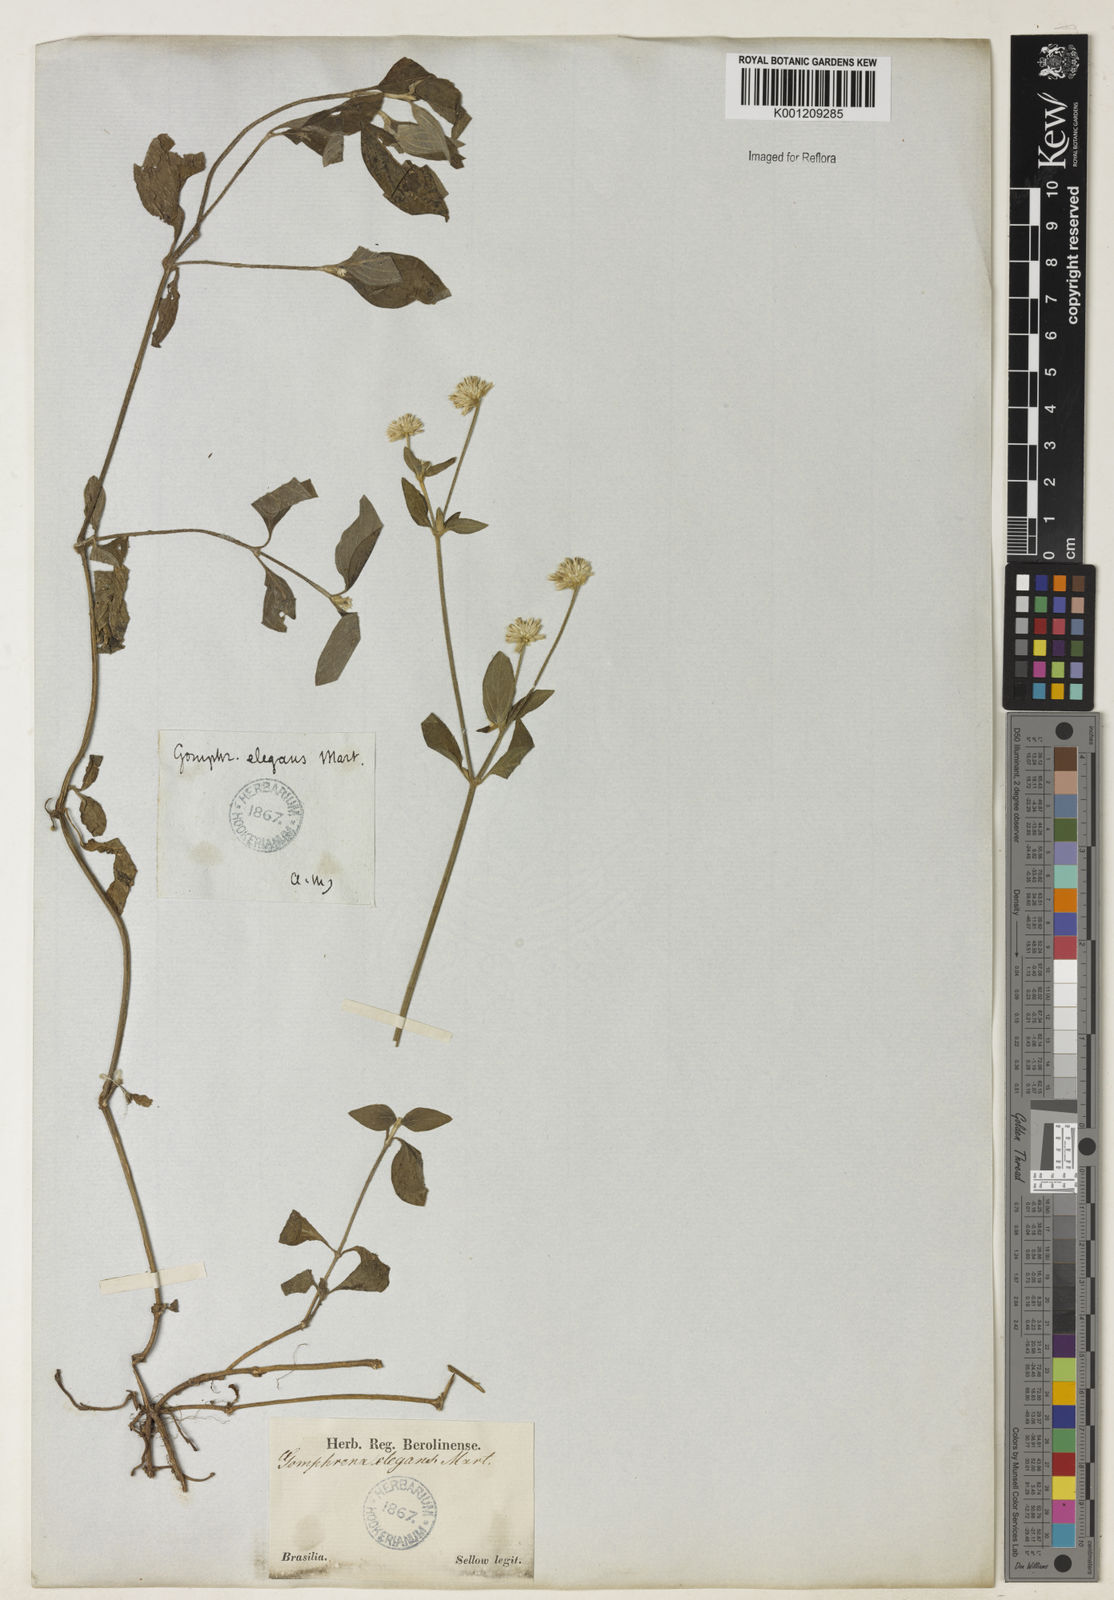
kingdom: Plantae
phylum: Tracheophyta
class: Magnoliopsida
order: Caryophyllales
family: Amaranthaceae
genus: Gomphrena
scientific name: Gomphrena elegans
